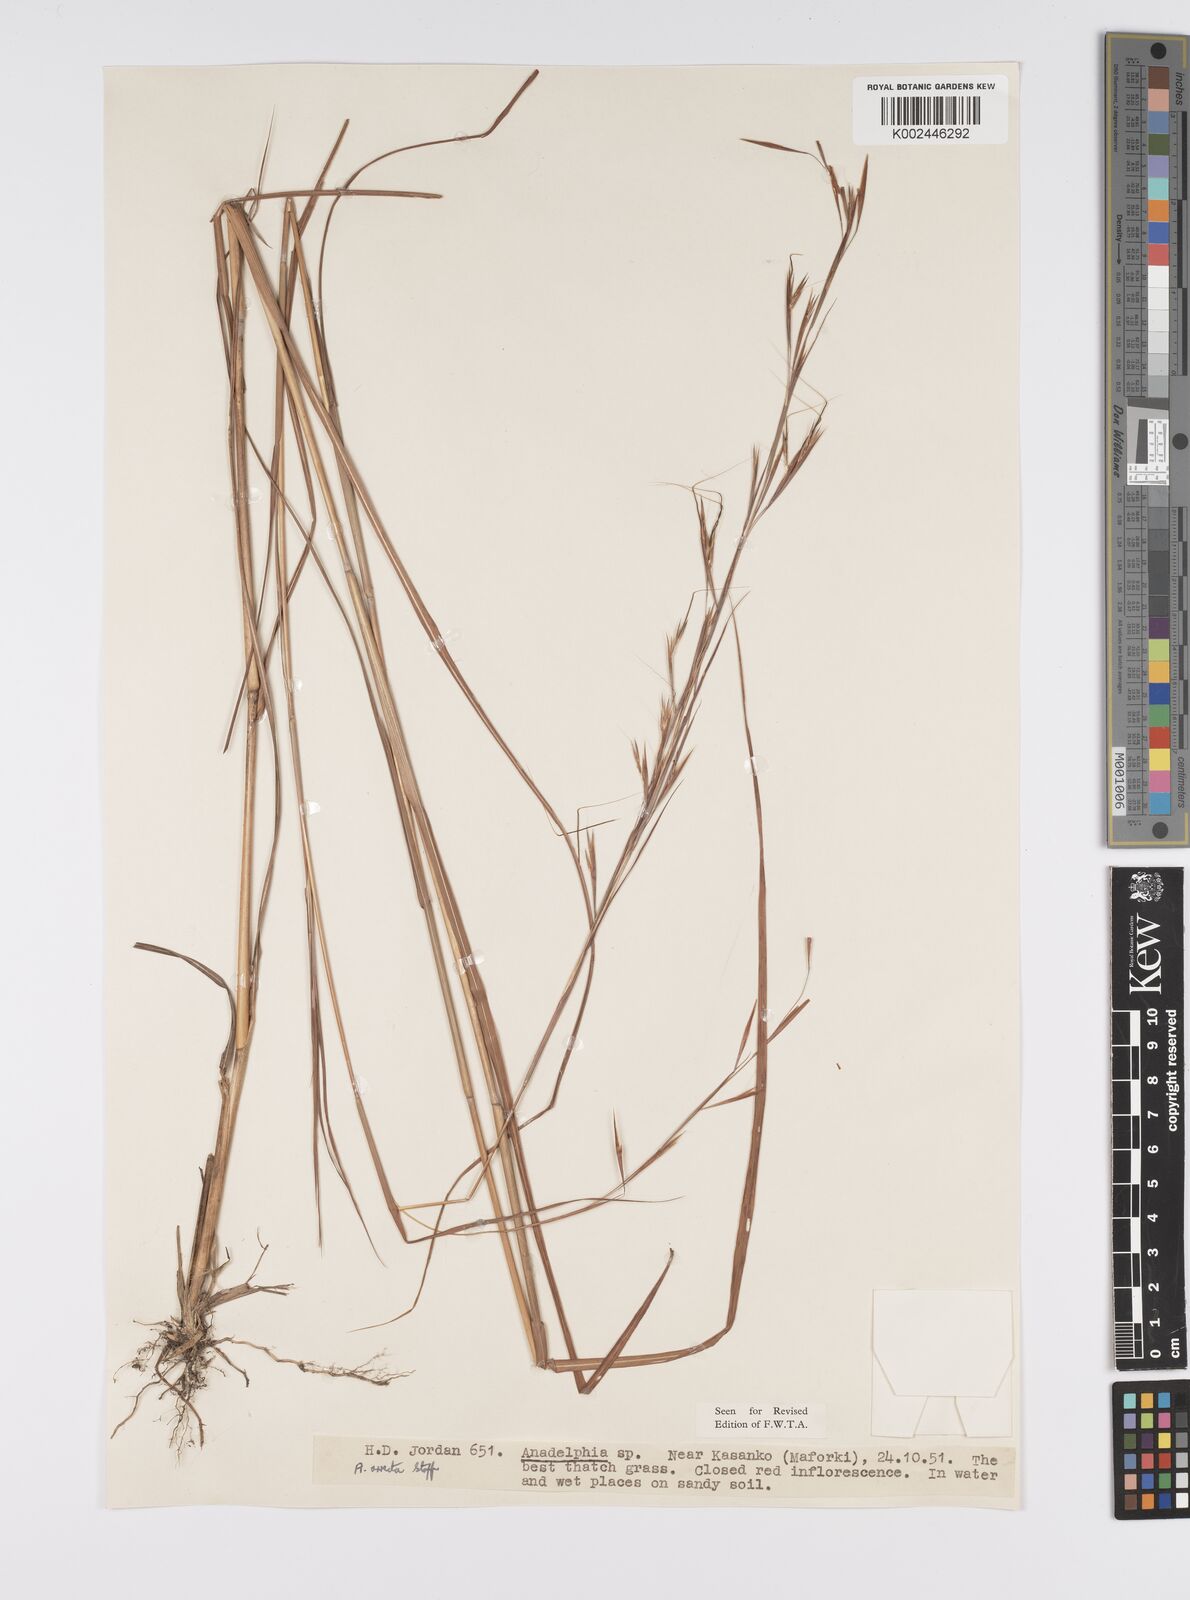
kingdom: Plantae
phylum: Tracheophyta
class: Liliopsida
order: Poales
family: Poaceae
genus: Anadelphia
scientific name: Anadelphia afzeliana
